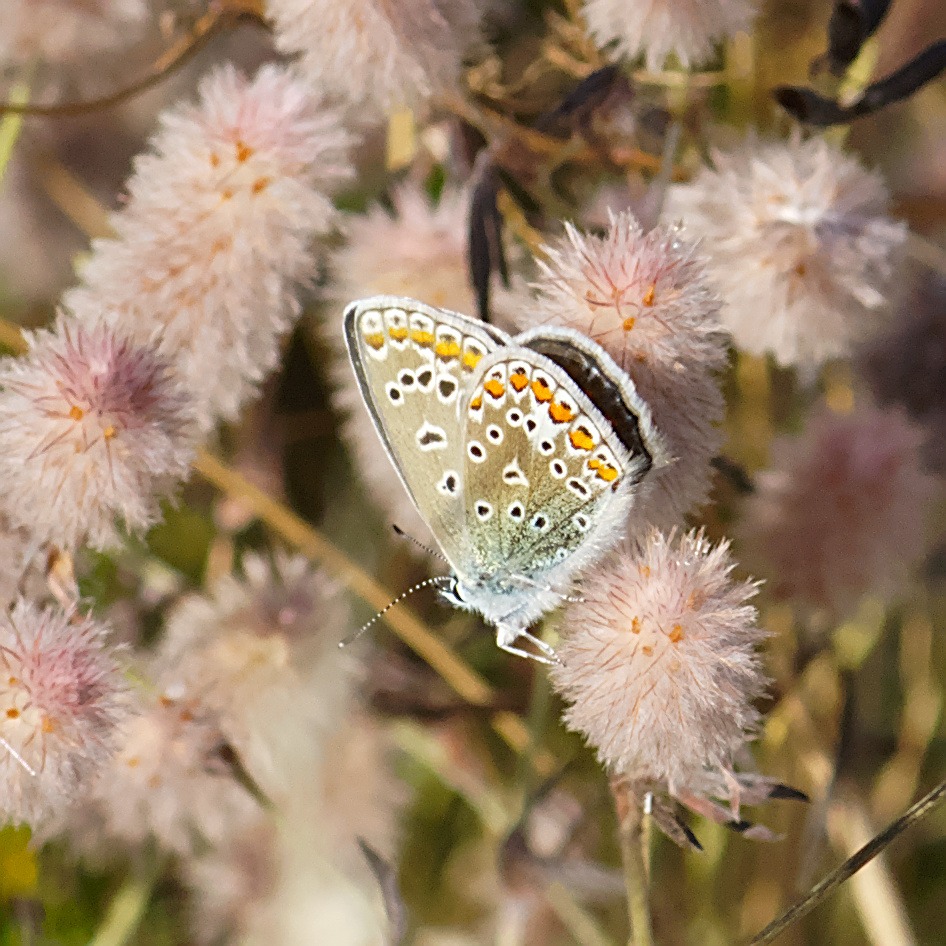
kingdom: Animalia
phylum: Arthropoda
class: Insecta
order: Lepidoptera
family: Lycaenidae
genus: Polyommatus
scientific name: Polyommatus icarus
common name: Almindelig blåfugl
